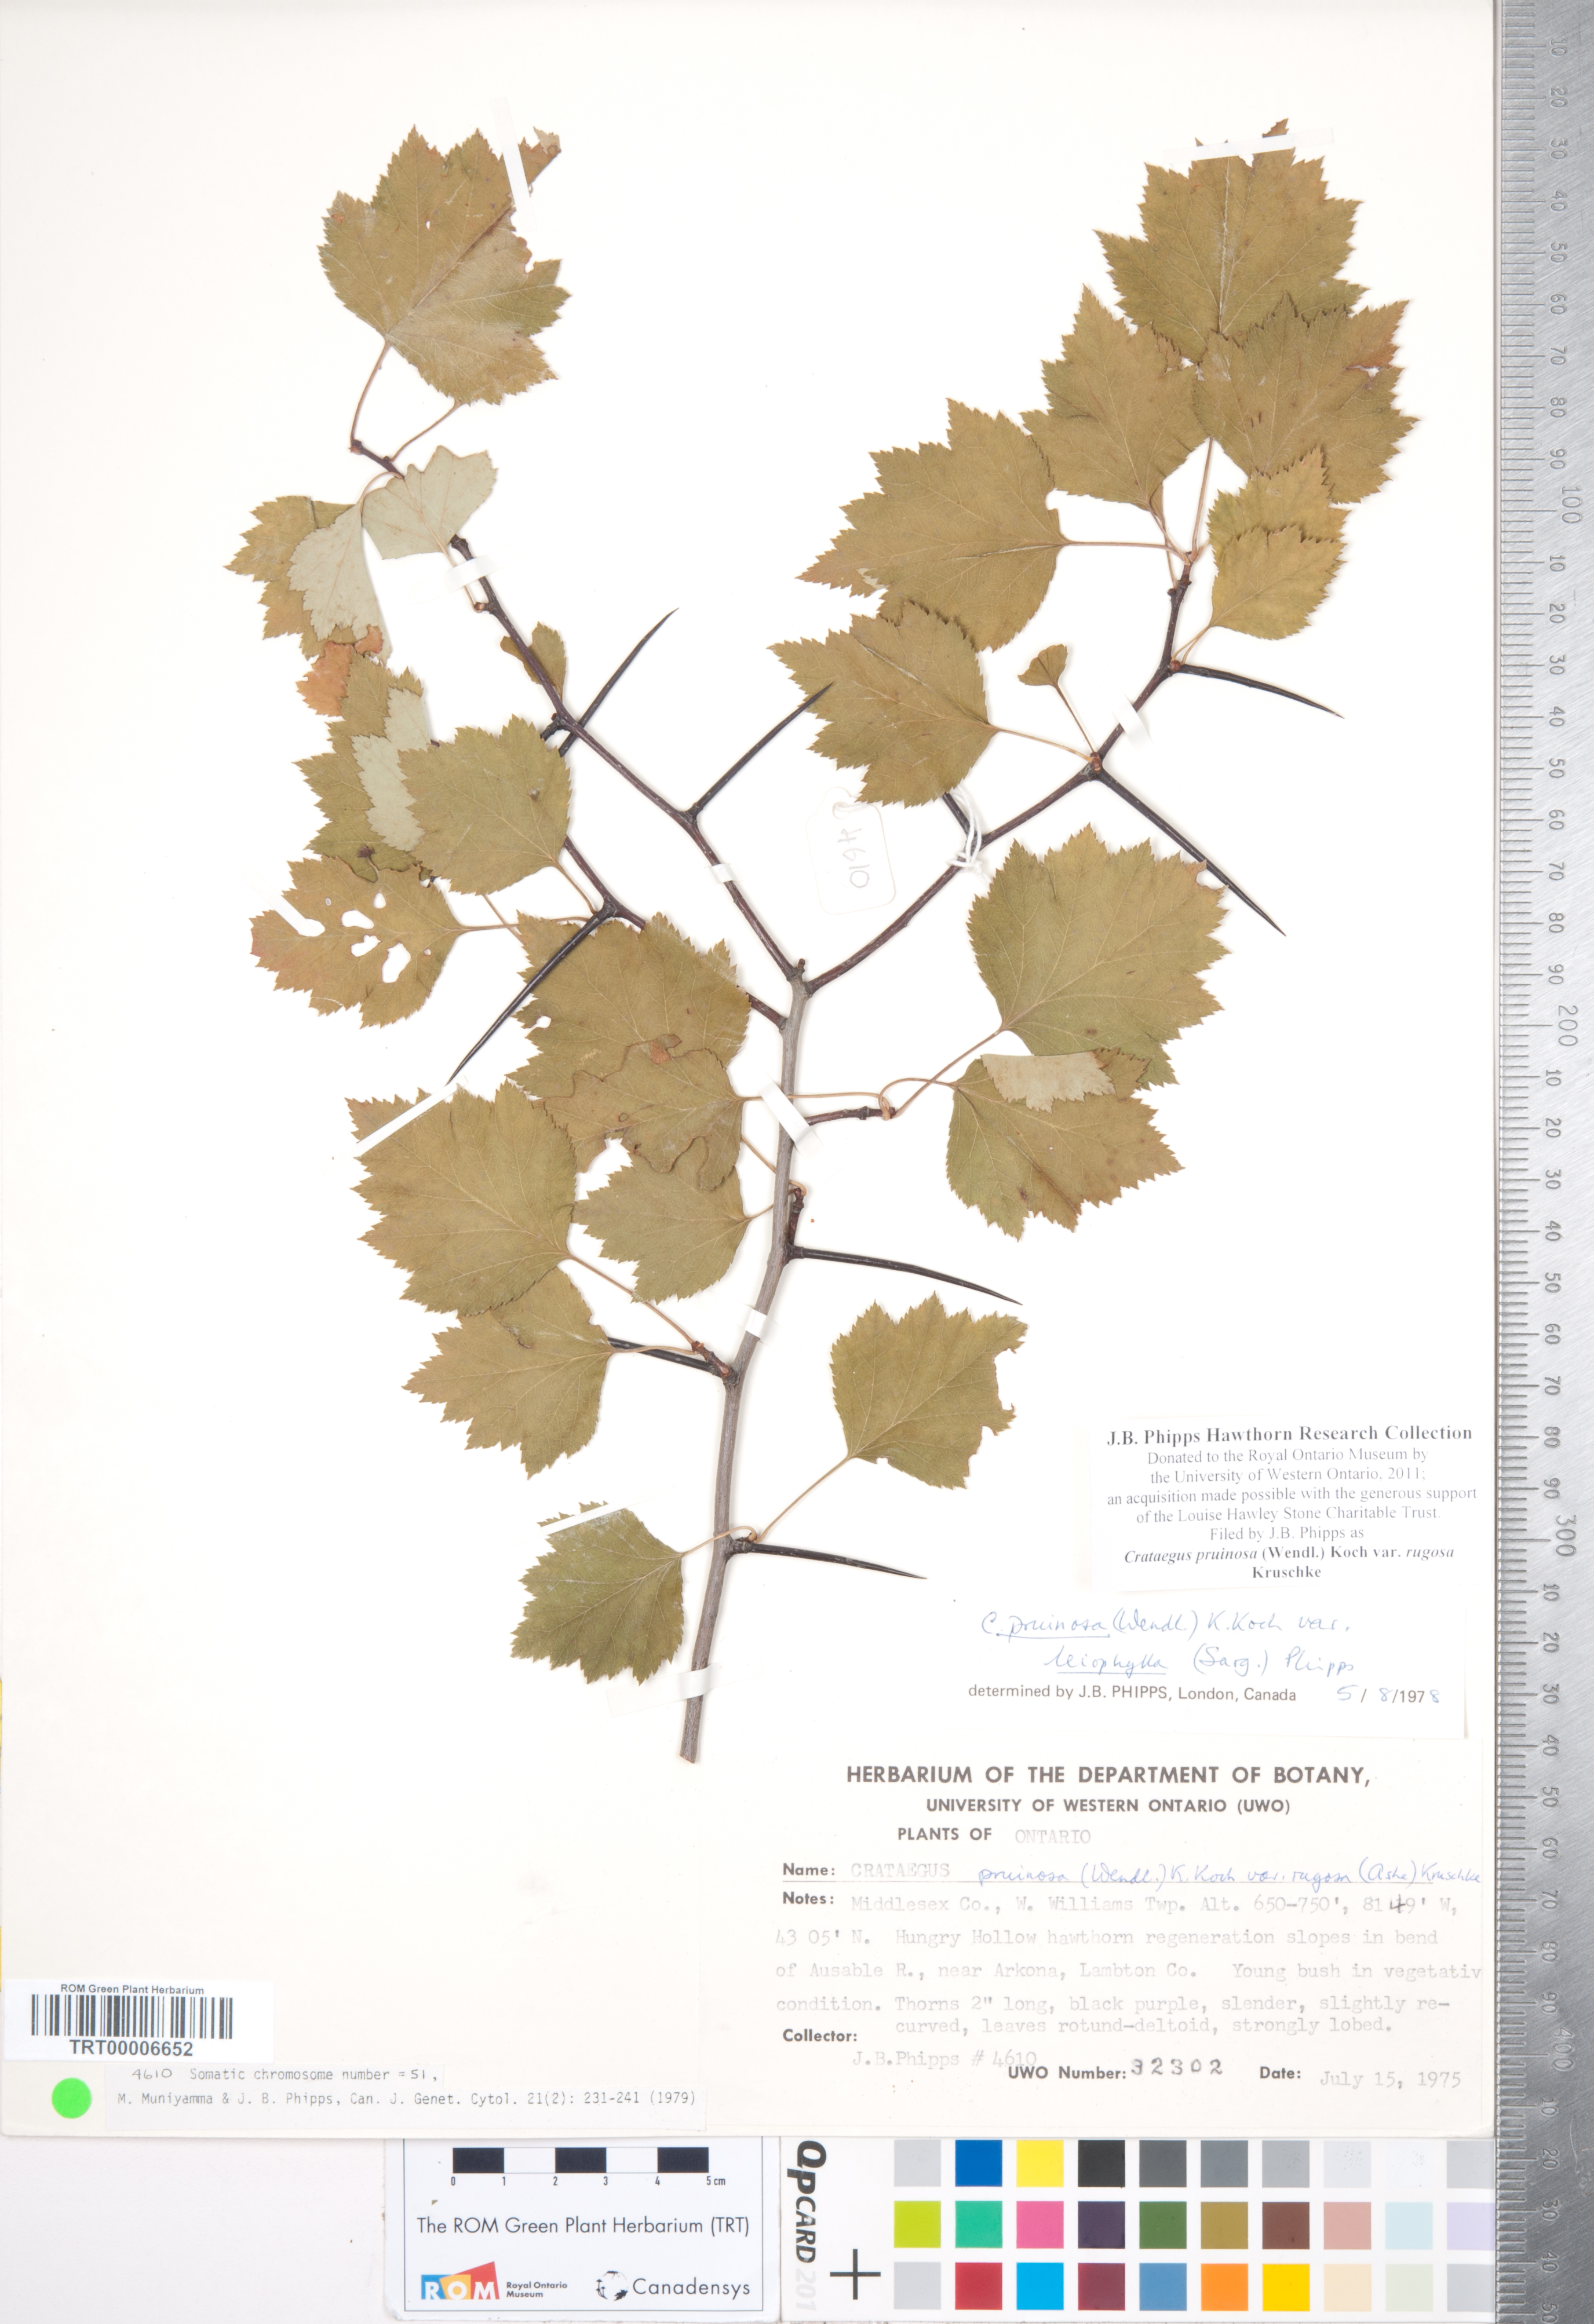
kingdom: Plantae
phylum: Tracheophyta
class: Magnoliopsida
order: Rosales
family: Rosaceae
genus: Crataegus
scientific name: Crataegus pruinosa
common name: Waxy-fruit hawthorn
